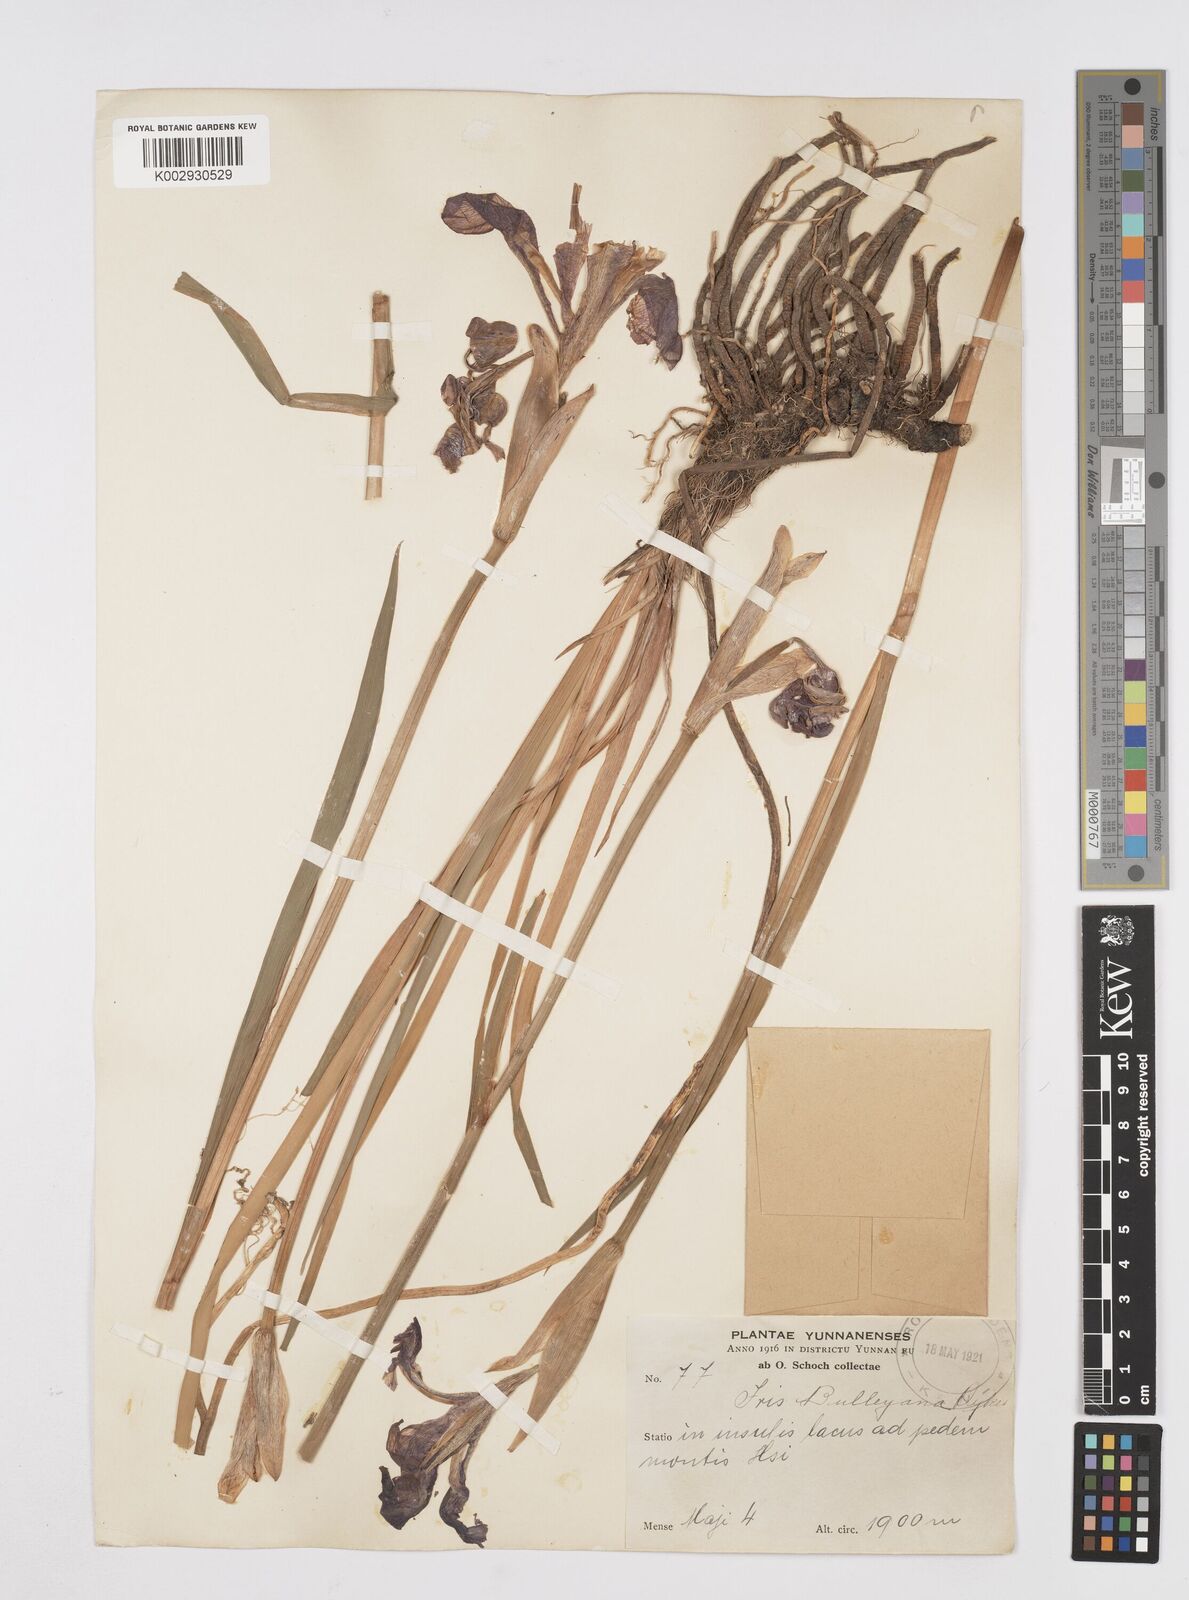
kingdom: Plantae
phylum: Tracheophyta
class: Liliopsida
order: Asparagales
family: Iridaceae
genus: Iris
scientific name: Iris clarkei
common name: Tibet iris
